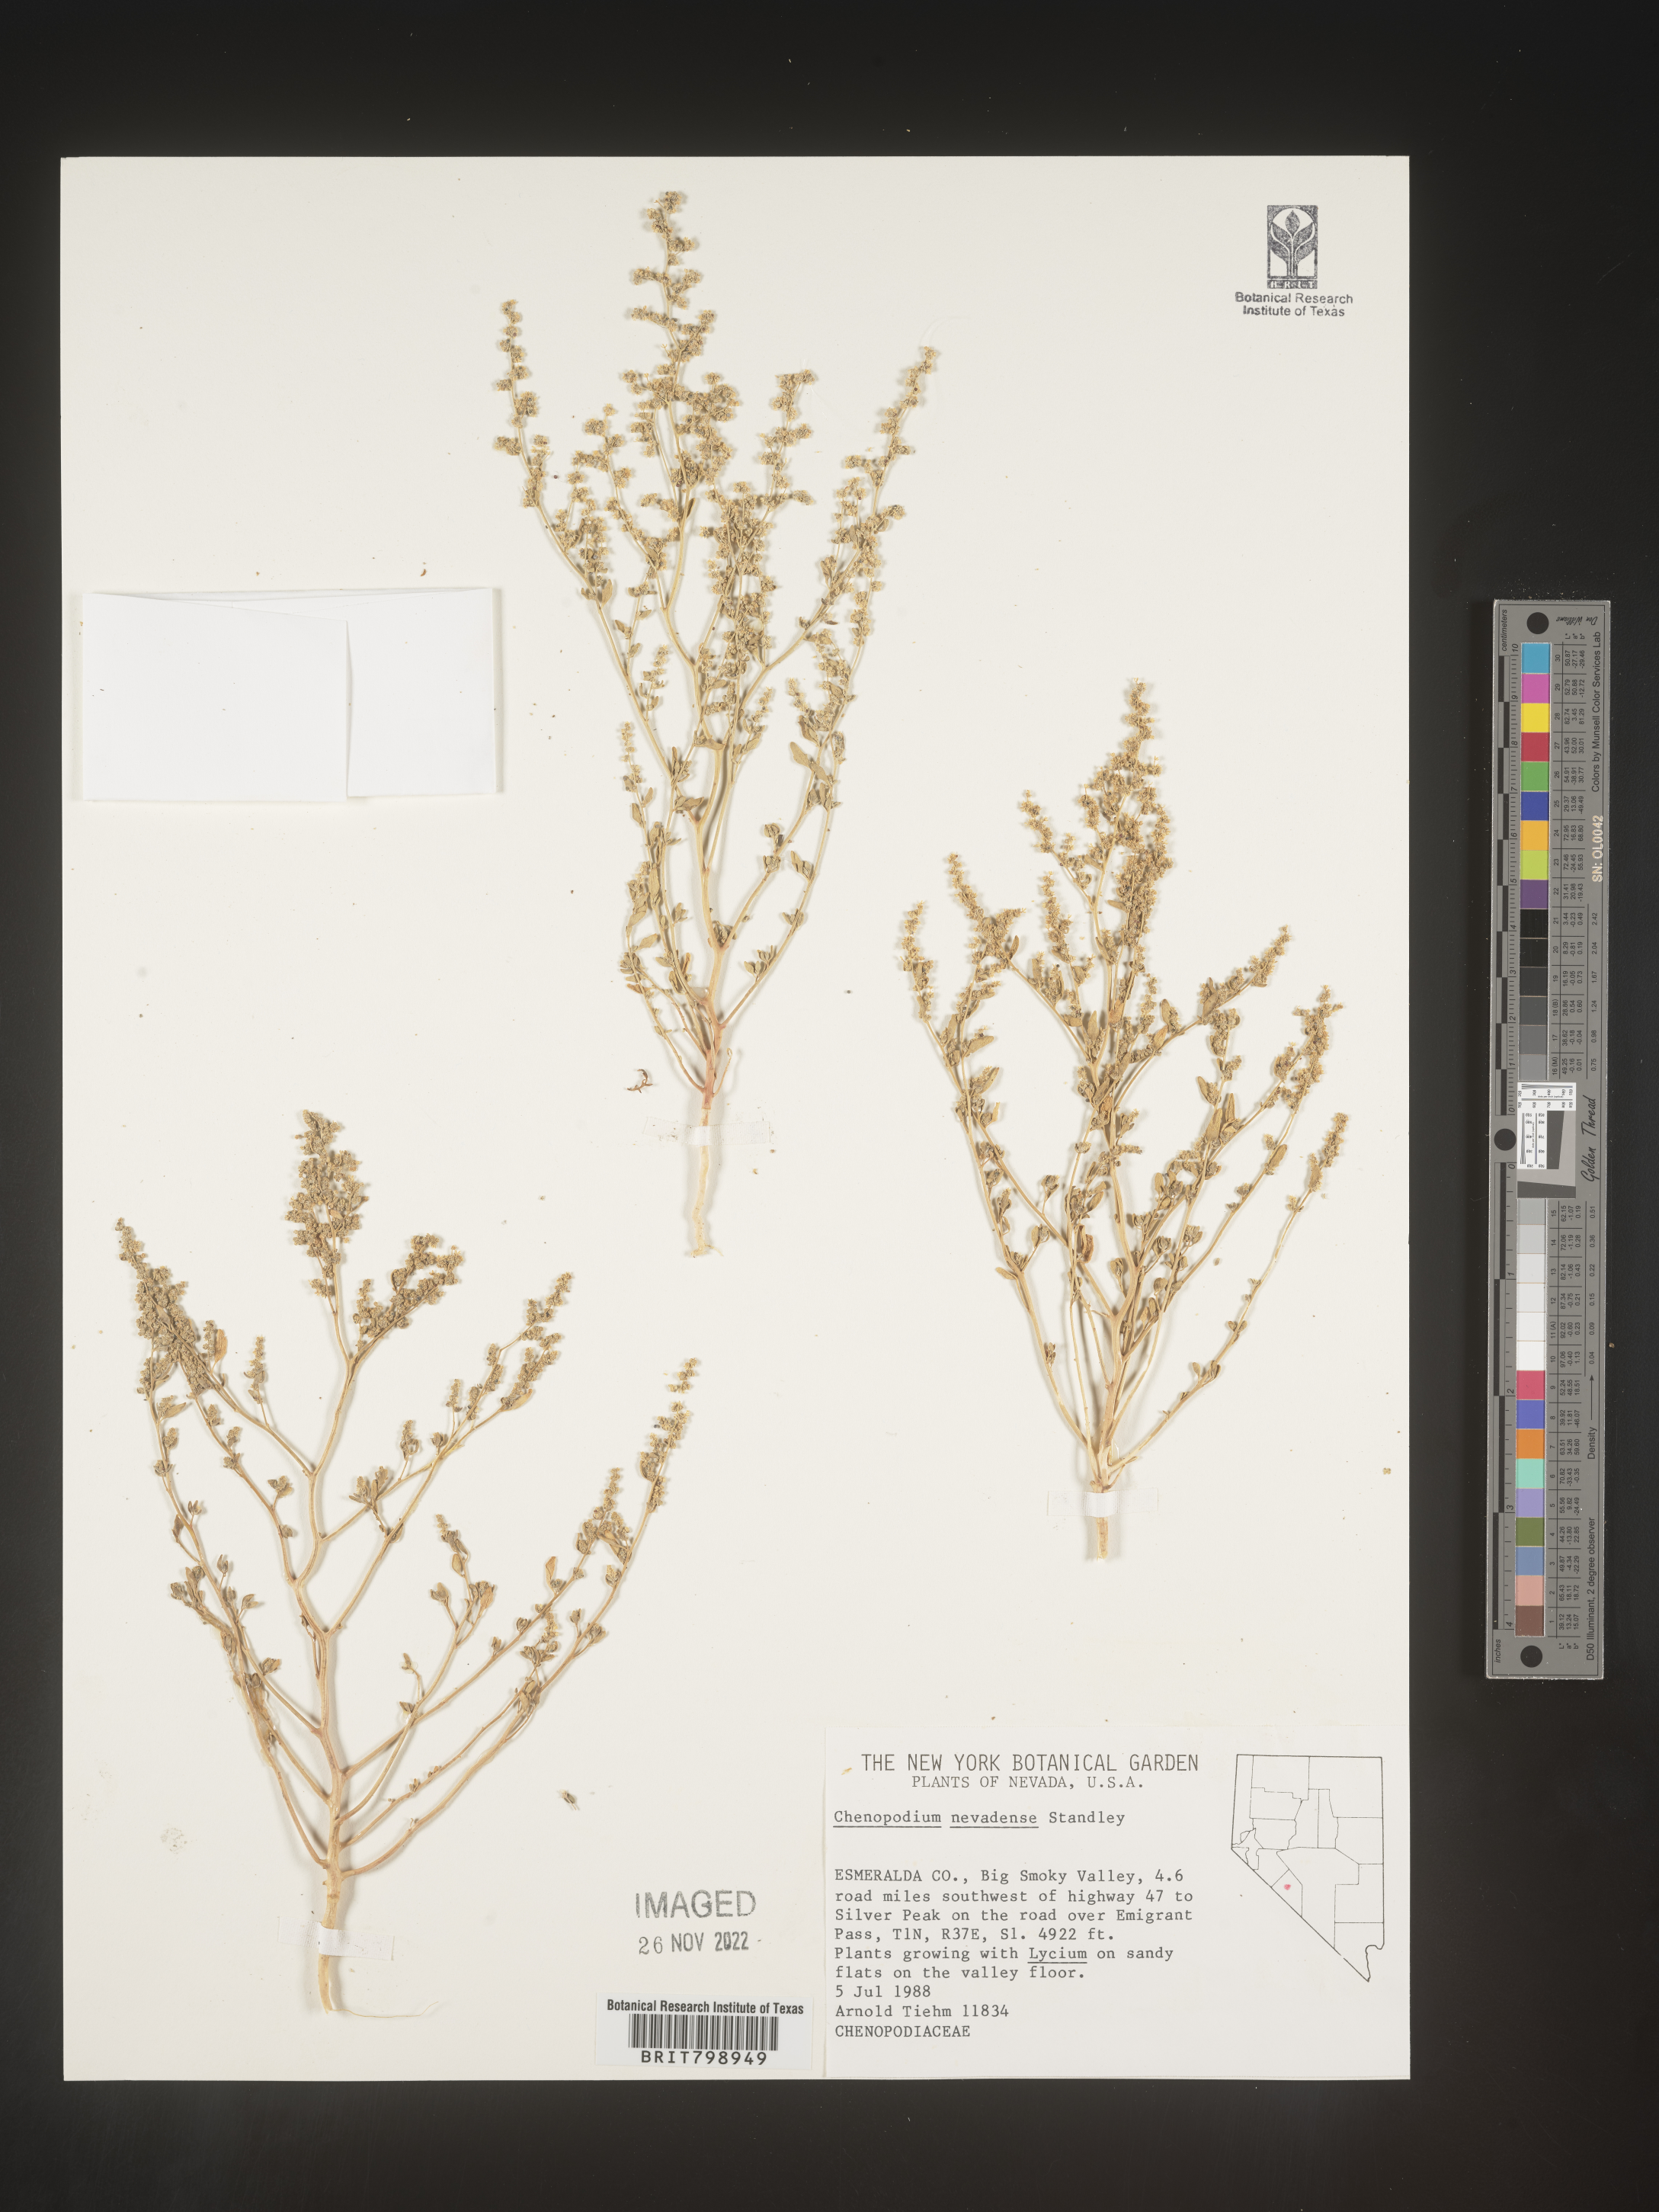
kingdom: Plantae
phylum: Tracheophyta
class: Magnoliopsida
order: Caryophyllales
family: Amaranthaceae
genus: Chenopodium
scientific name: Chenopodium
